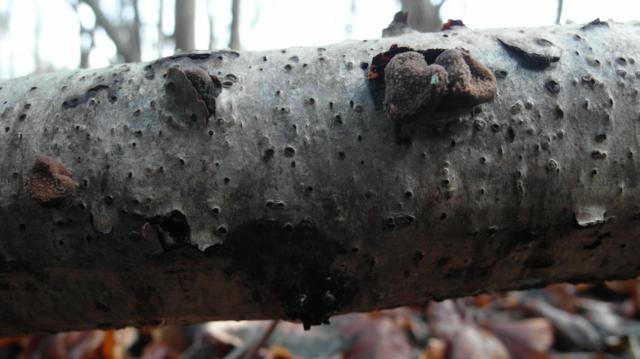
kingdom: Fungi
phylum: Ascomycota
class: Leotiomycetes
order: Helotiales
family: Cenangiaceae
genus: Encoelia
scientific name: Encoelia furfuracea
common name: hassel-læderskive
